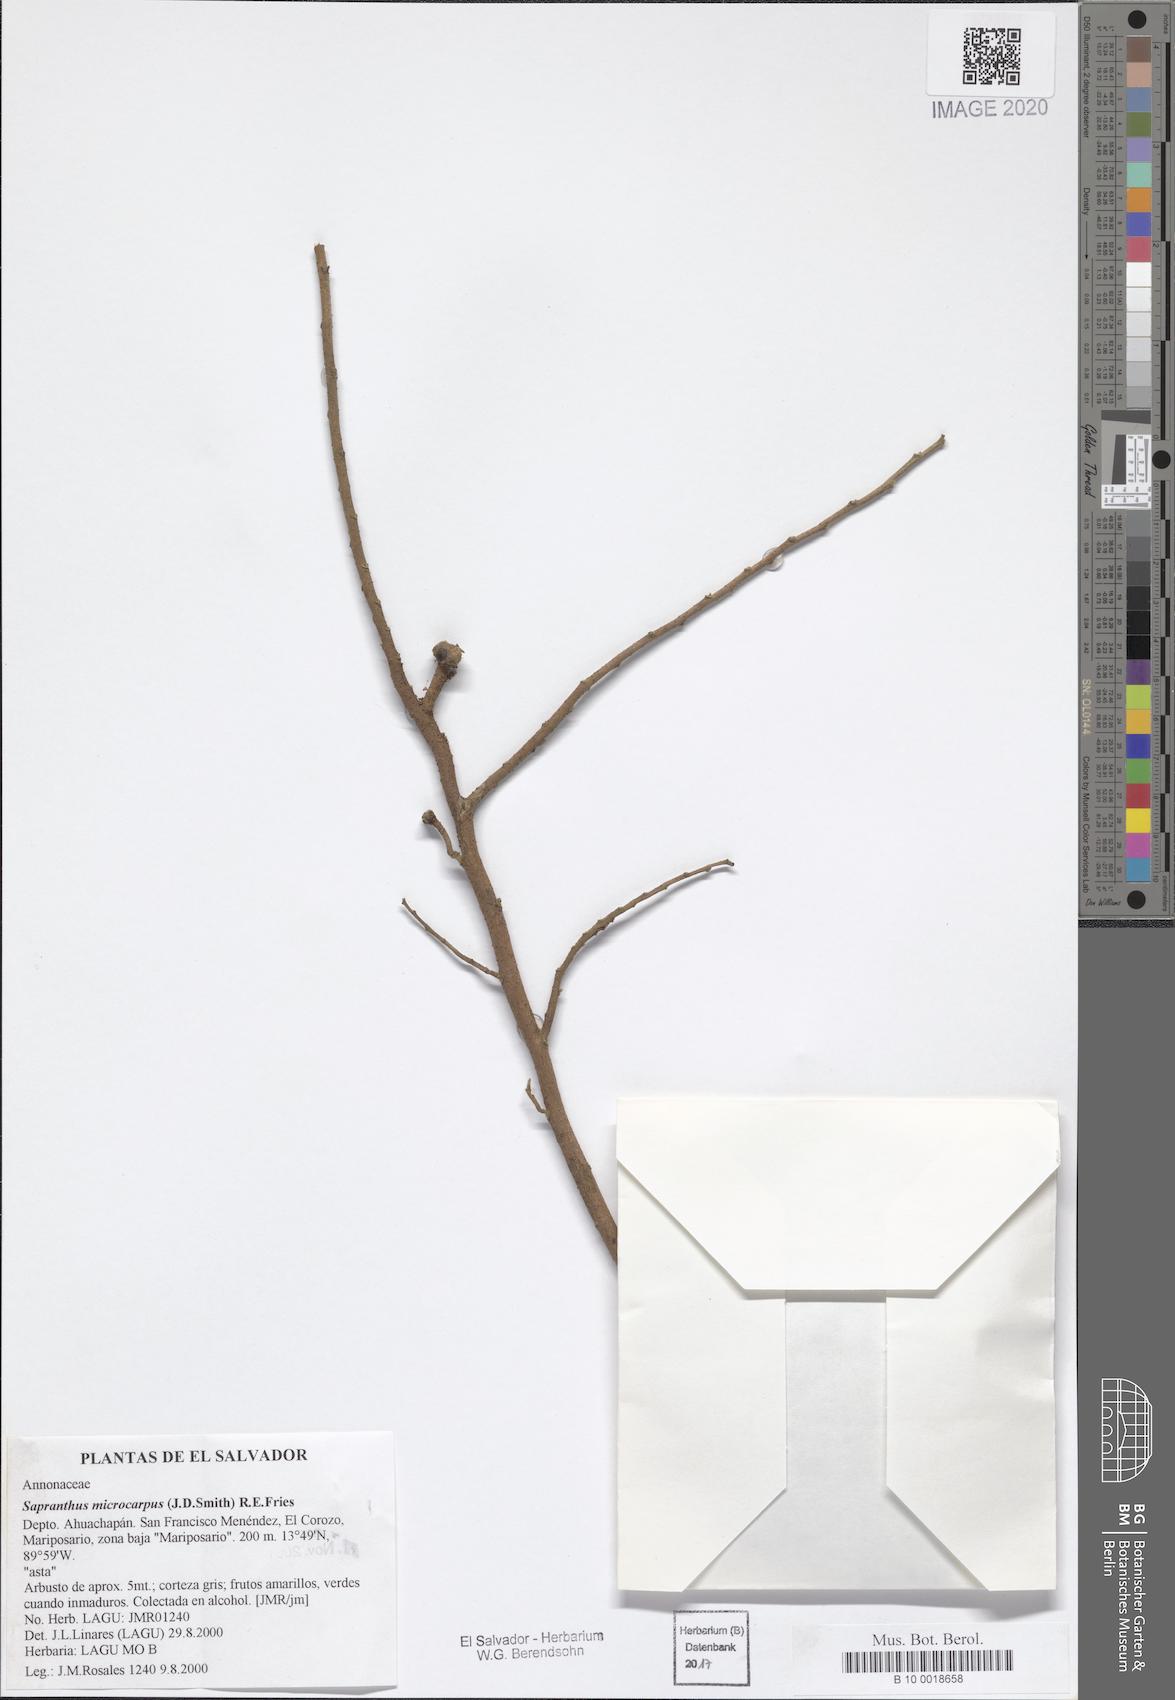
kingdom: Plantae
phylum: Tracheophyta
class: Magnoliopsida
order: Magnoliales
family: Annonaceae
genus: Sapranthus
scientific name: Sapranthus microcarpus
